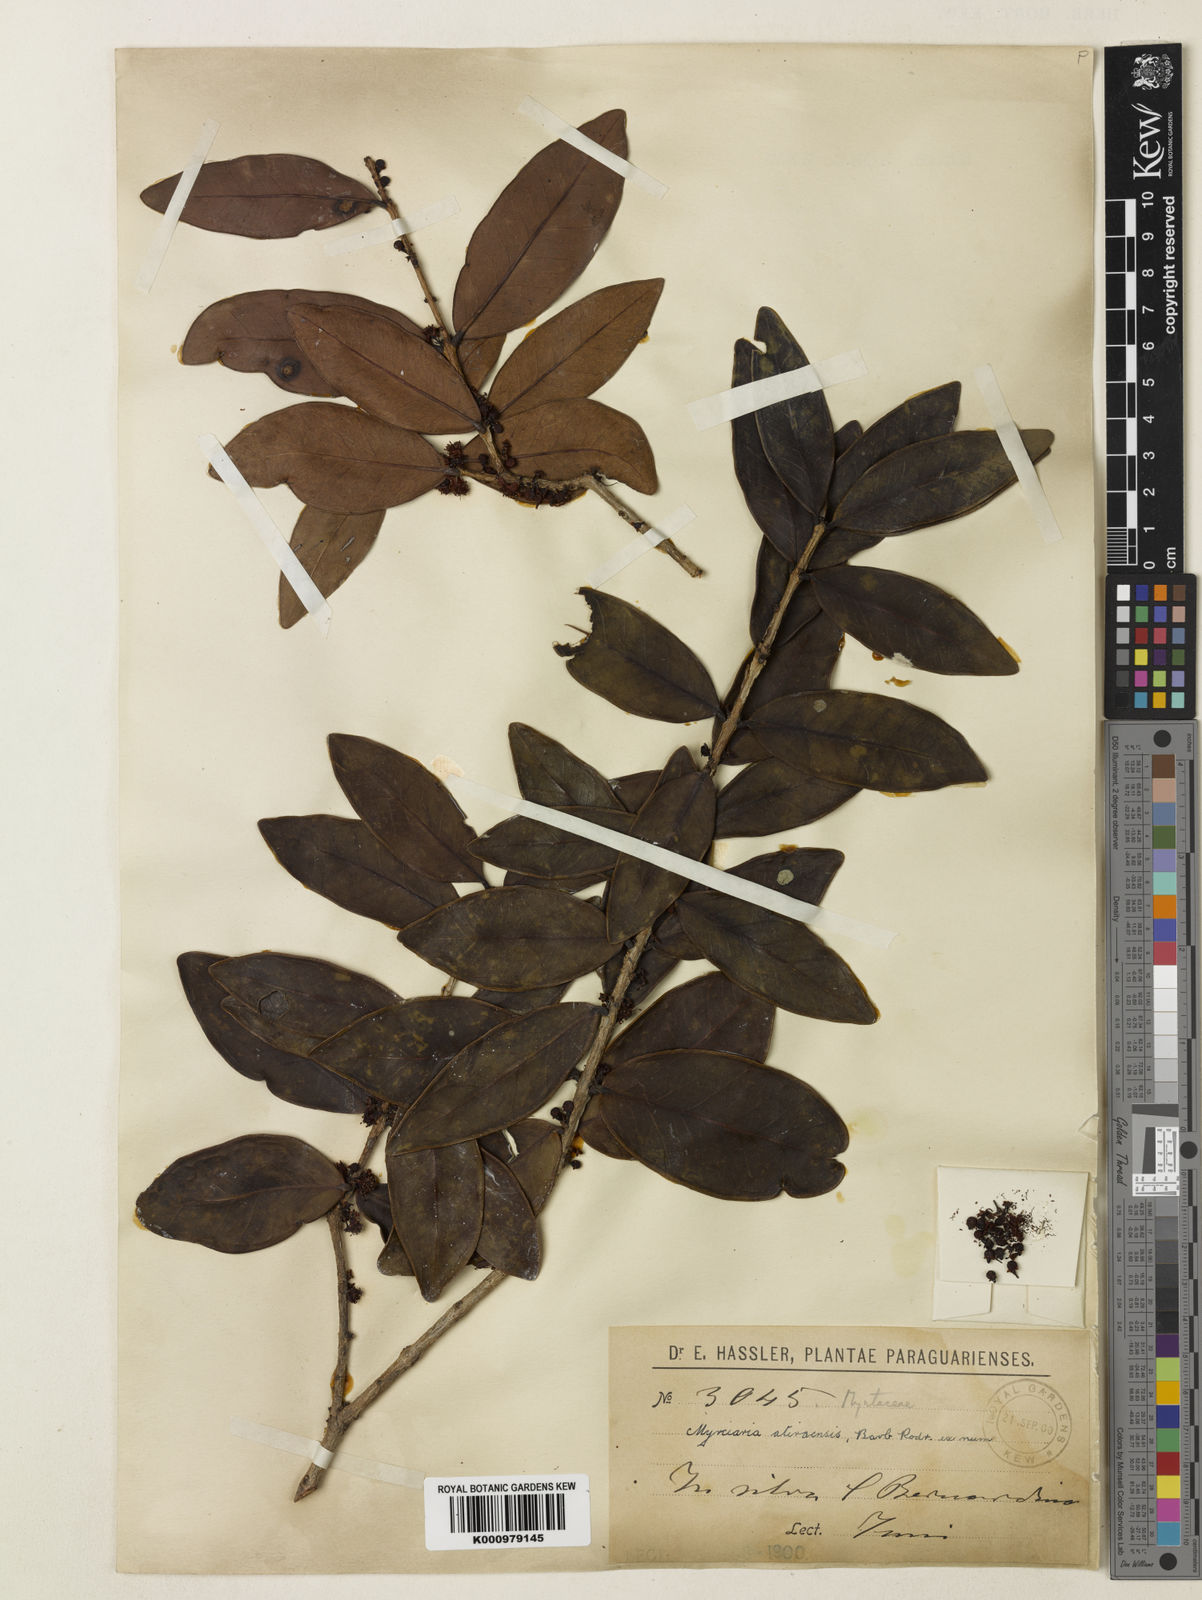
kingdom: Plantae
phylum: Tracheophyta
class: Magnoliopsida
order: Myrtales
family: Myrtaceae
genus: Eugenia
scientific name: Eugenia bimarginata
